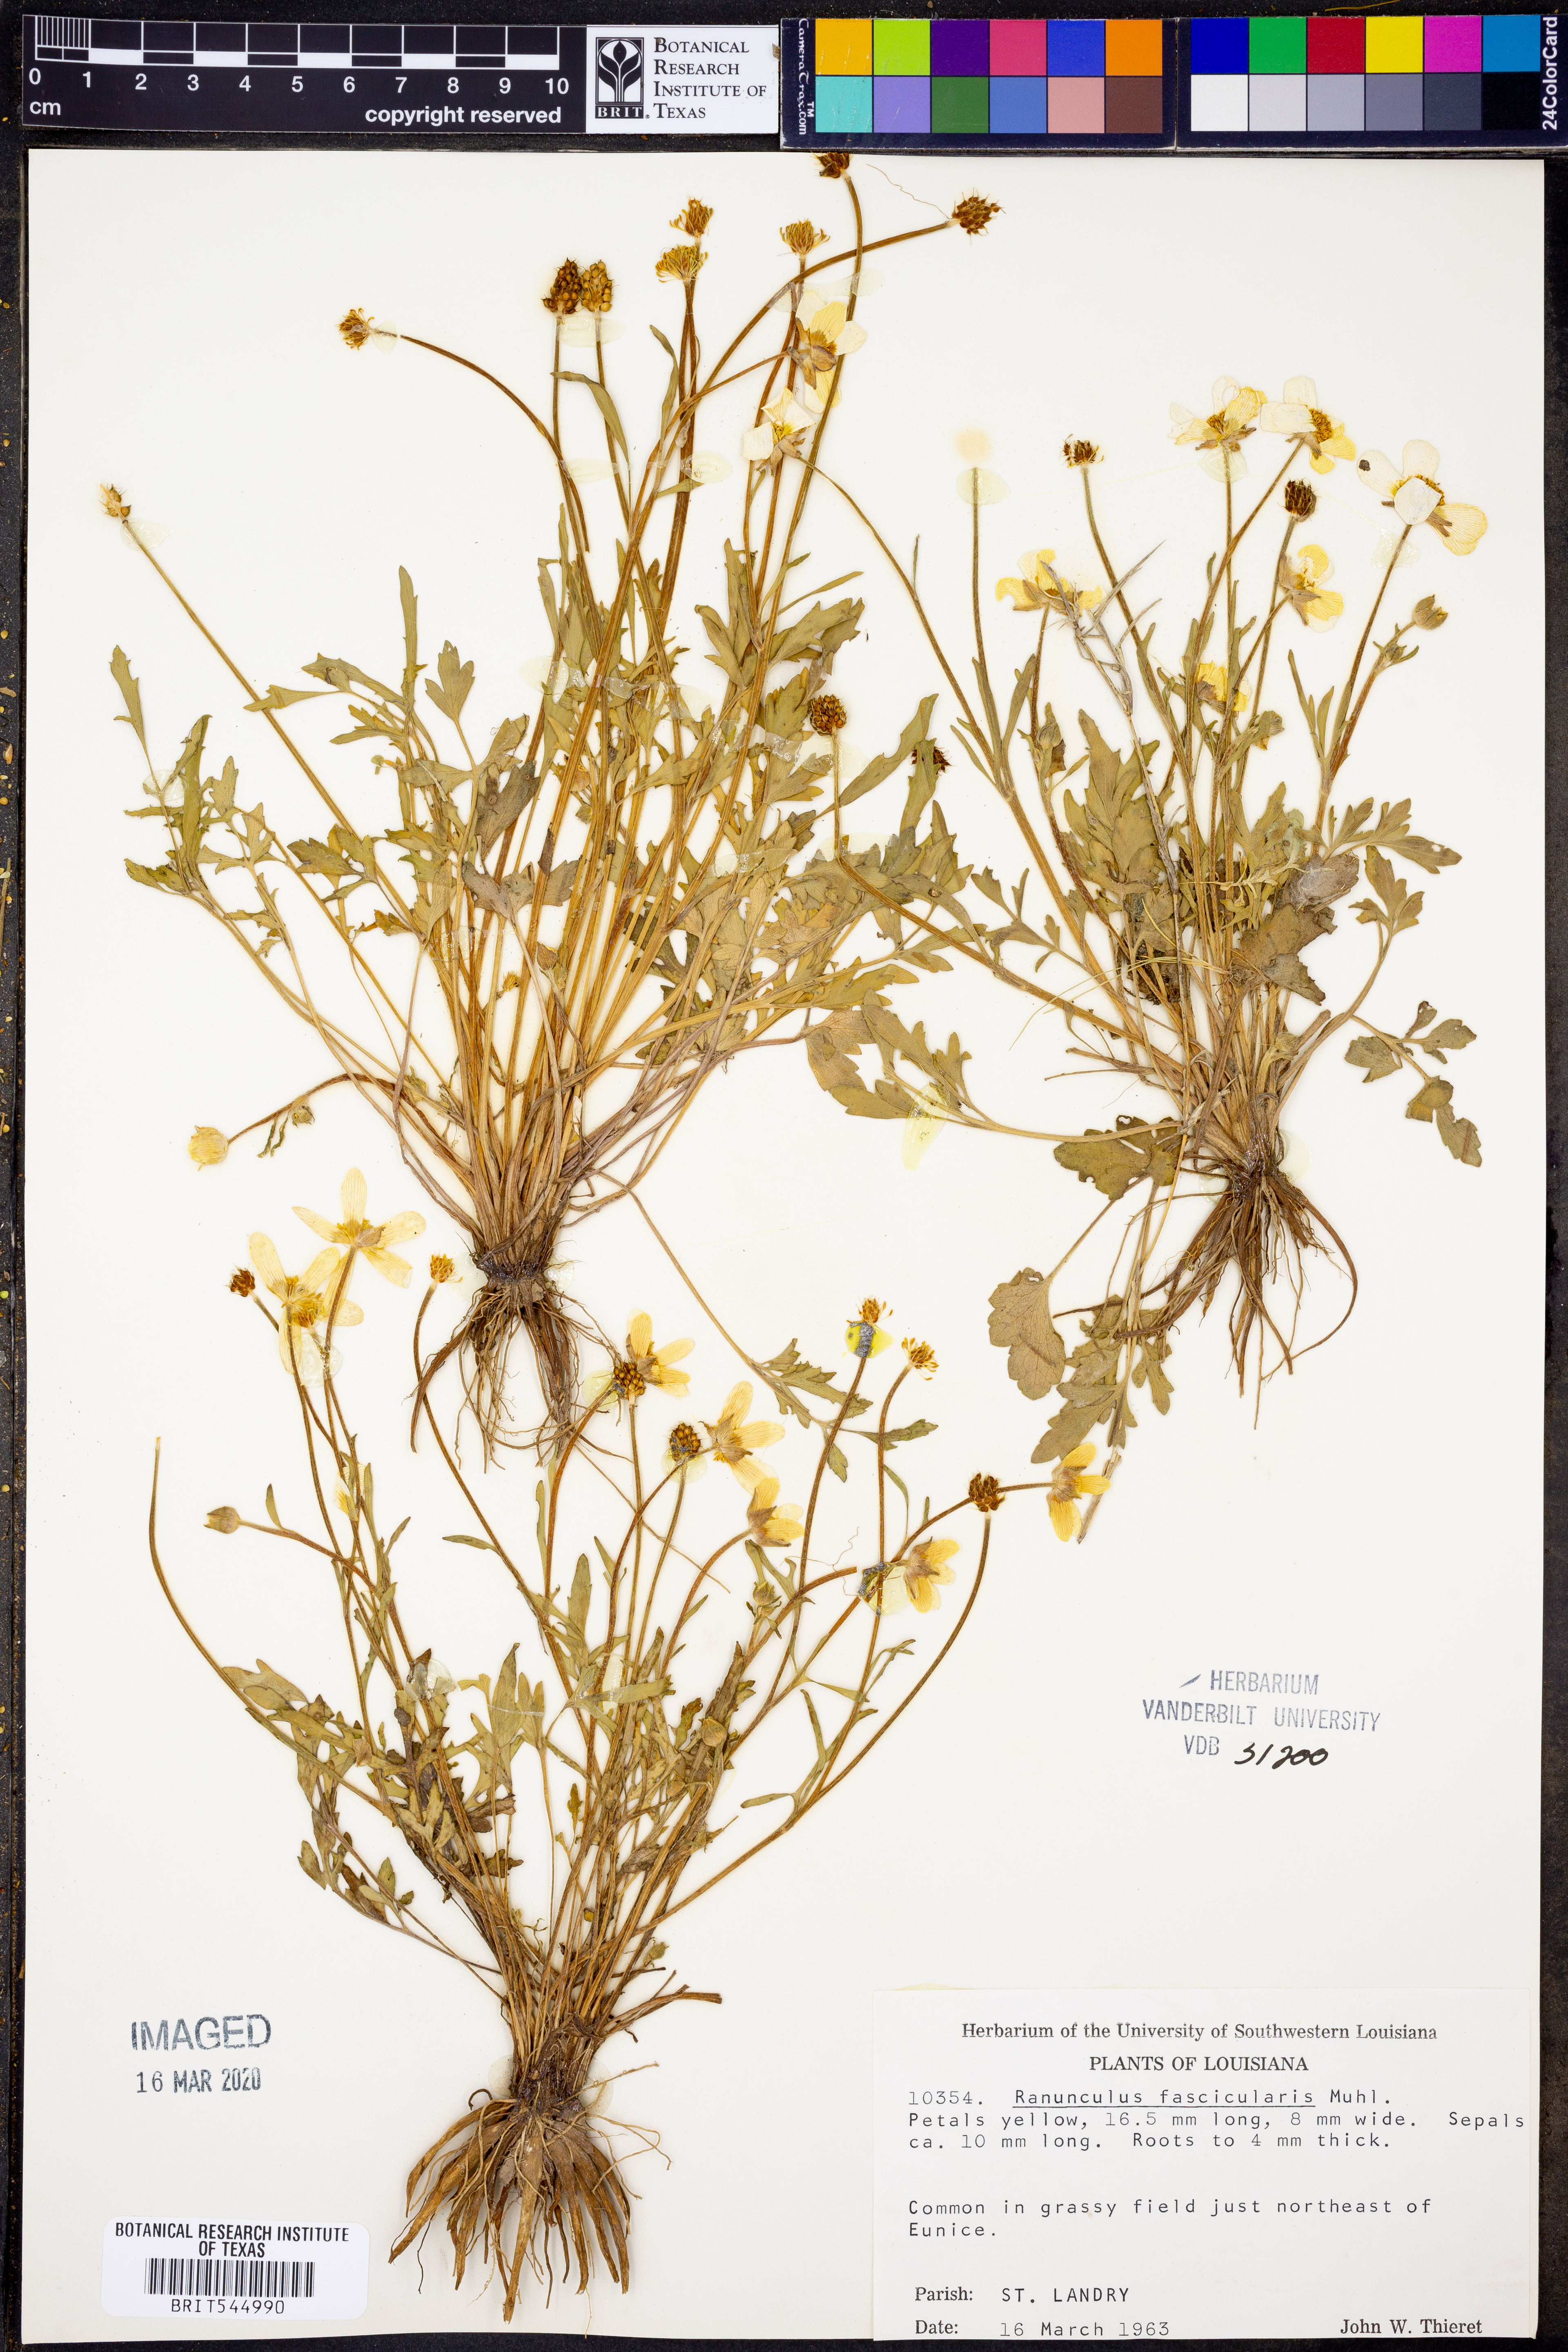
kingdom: Plantae
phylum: Tracheophyta
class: Magnoliopsida
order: Ranunculales
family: Ranunculaceae
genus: Ranunculus
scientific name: Ranunculus fascicularis
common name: Early buttercup
